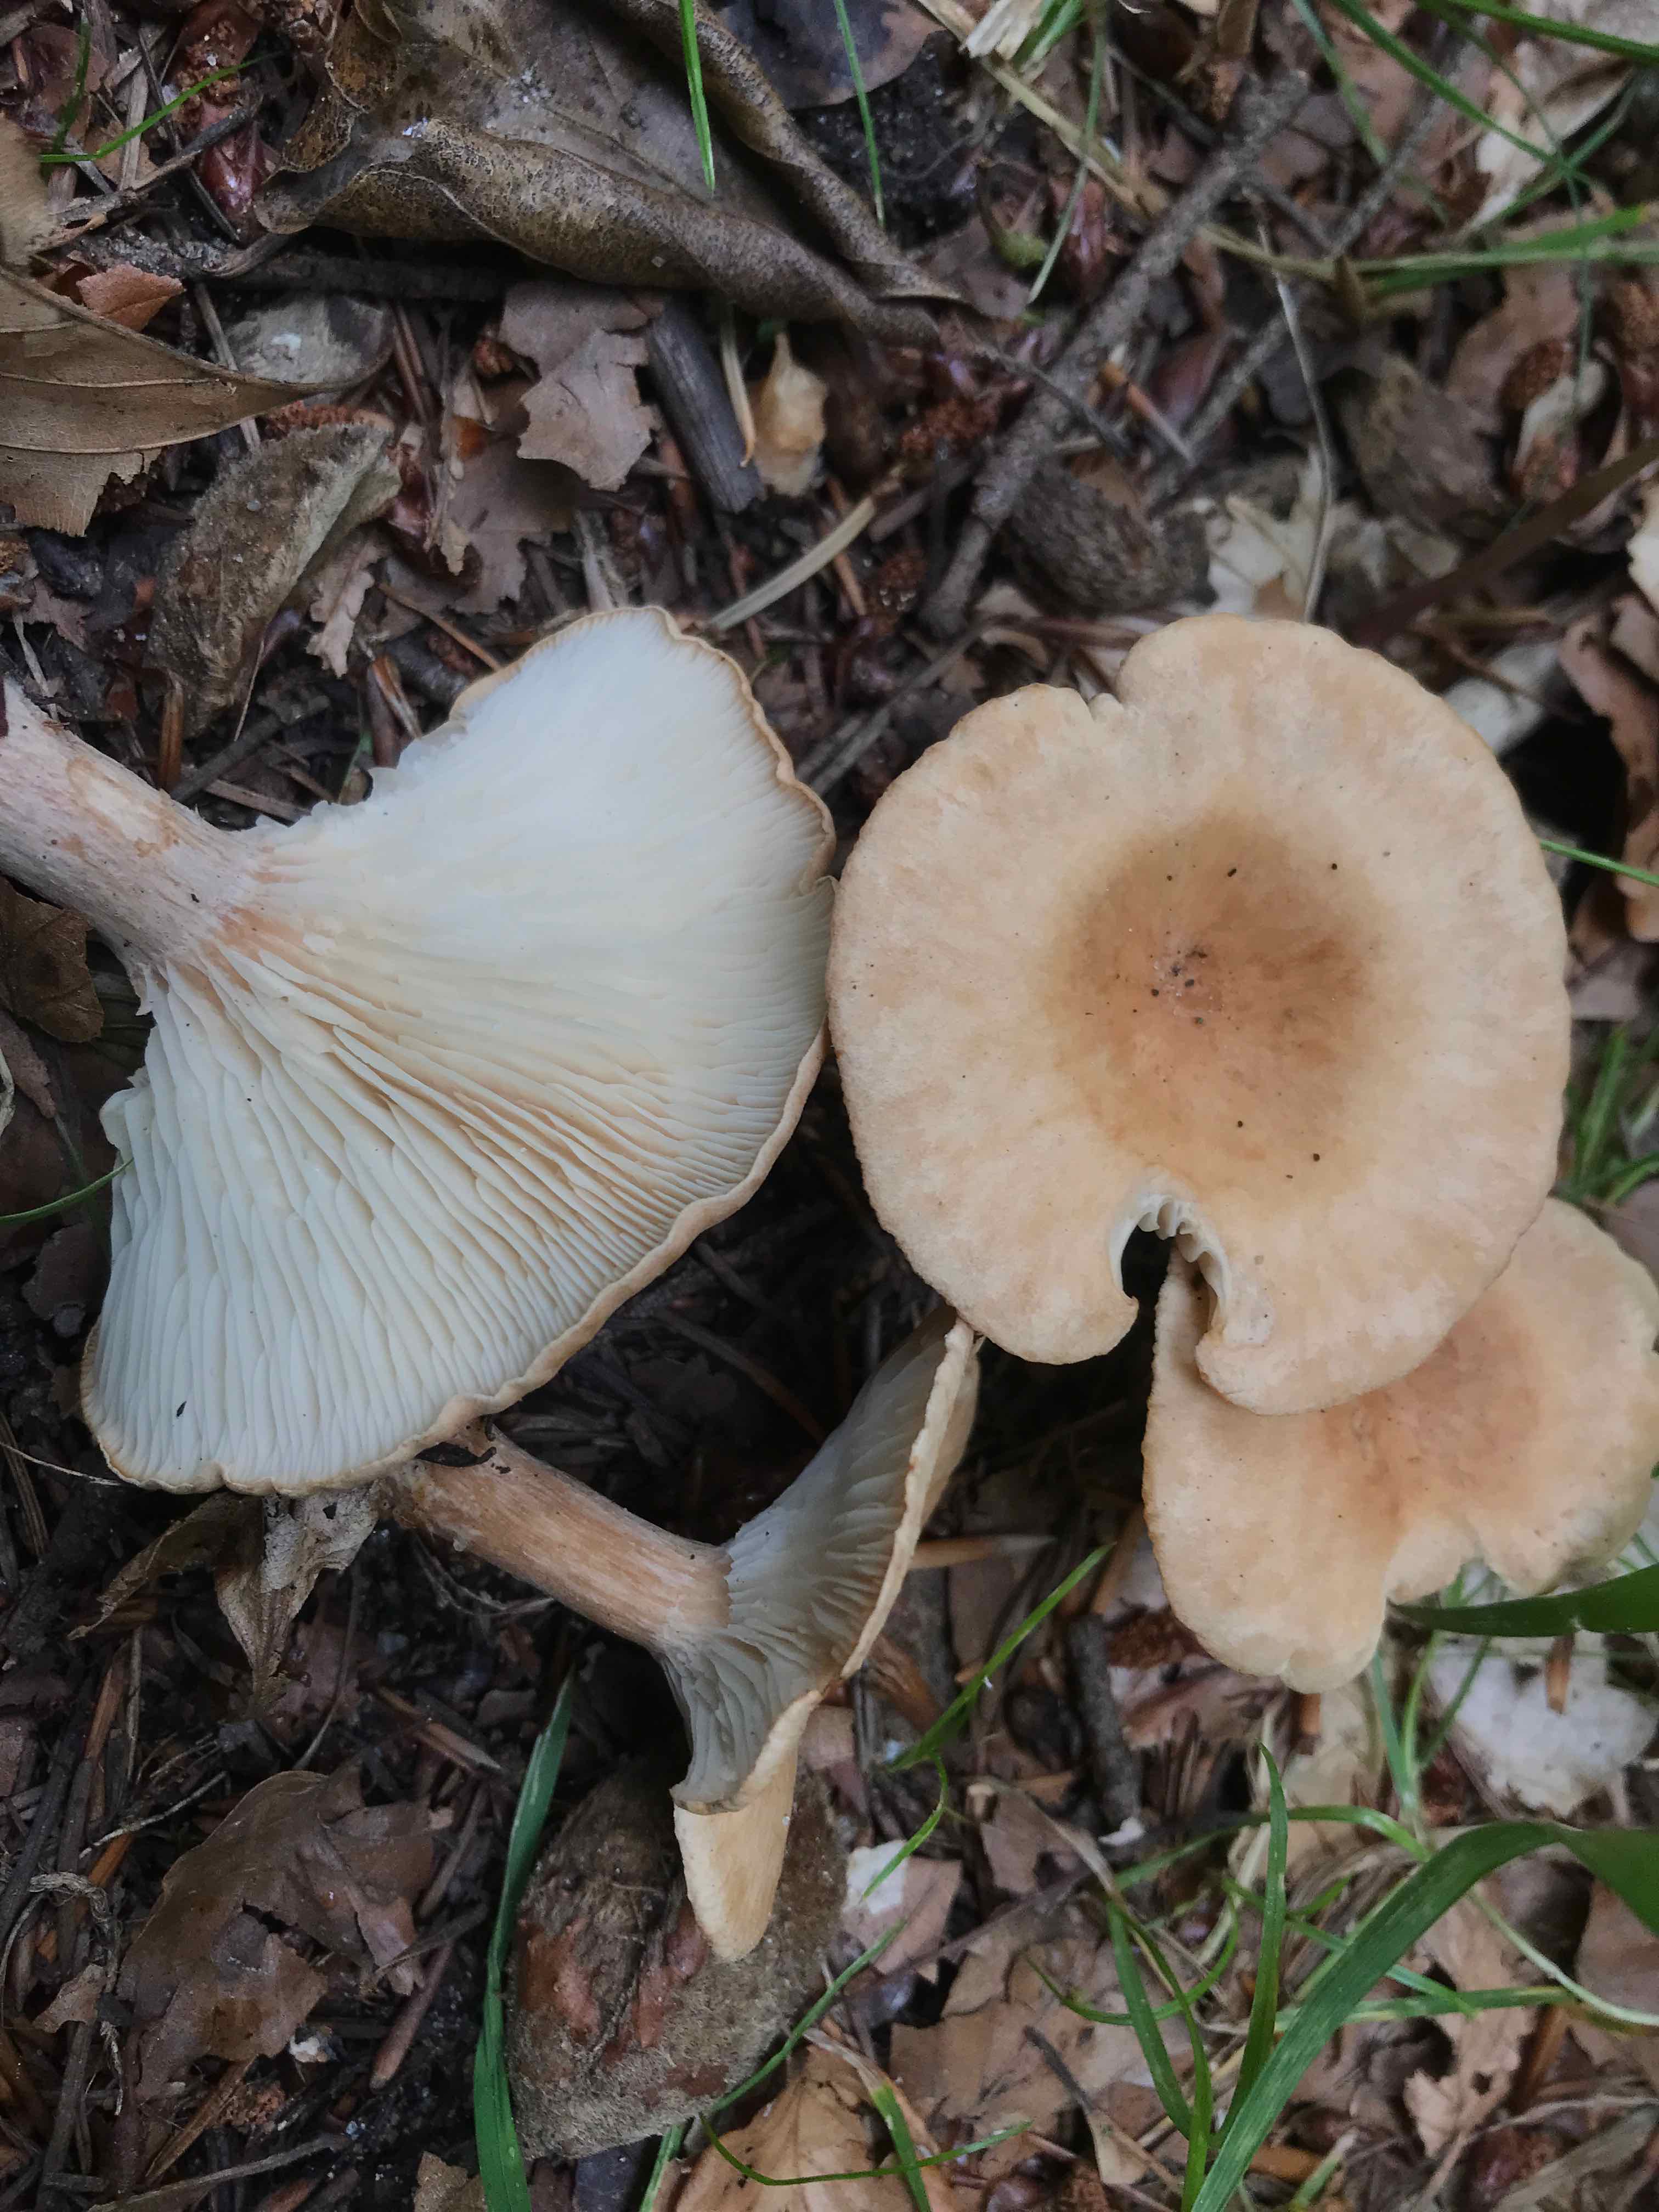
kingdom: Fungi
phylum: Basidiomycota
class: Agaricomycetes
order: Agaricales
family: Tricholomataceae
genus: Infundibulicybe
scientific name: Infundibulicybe gibba
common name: almindelig tragthat
